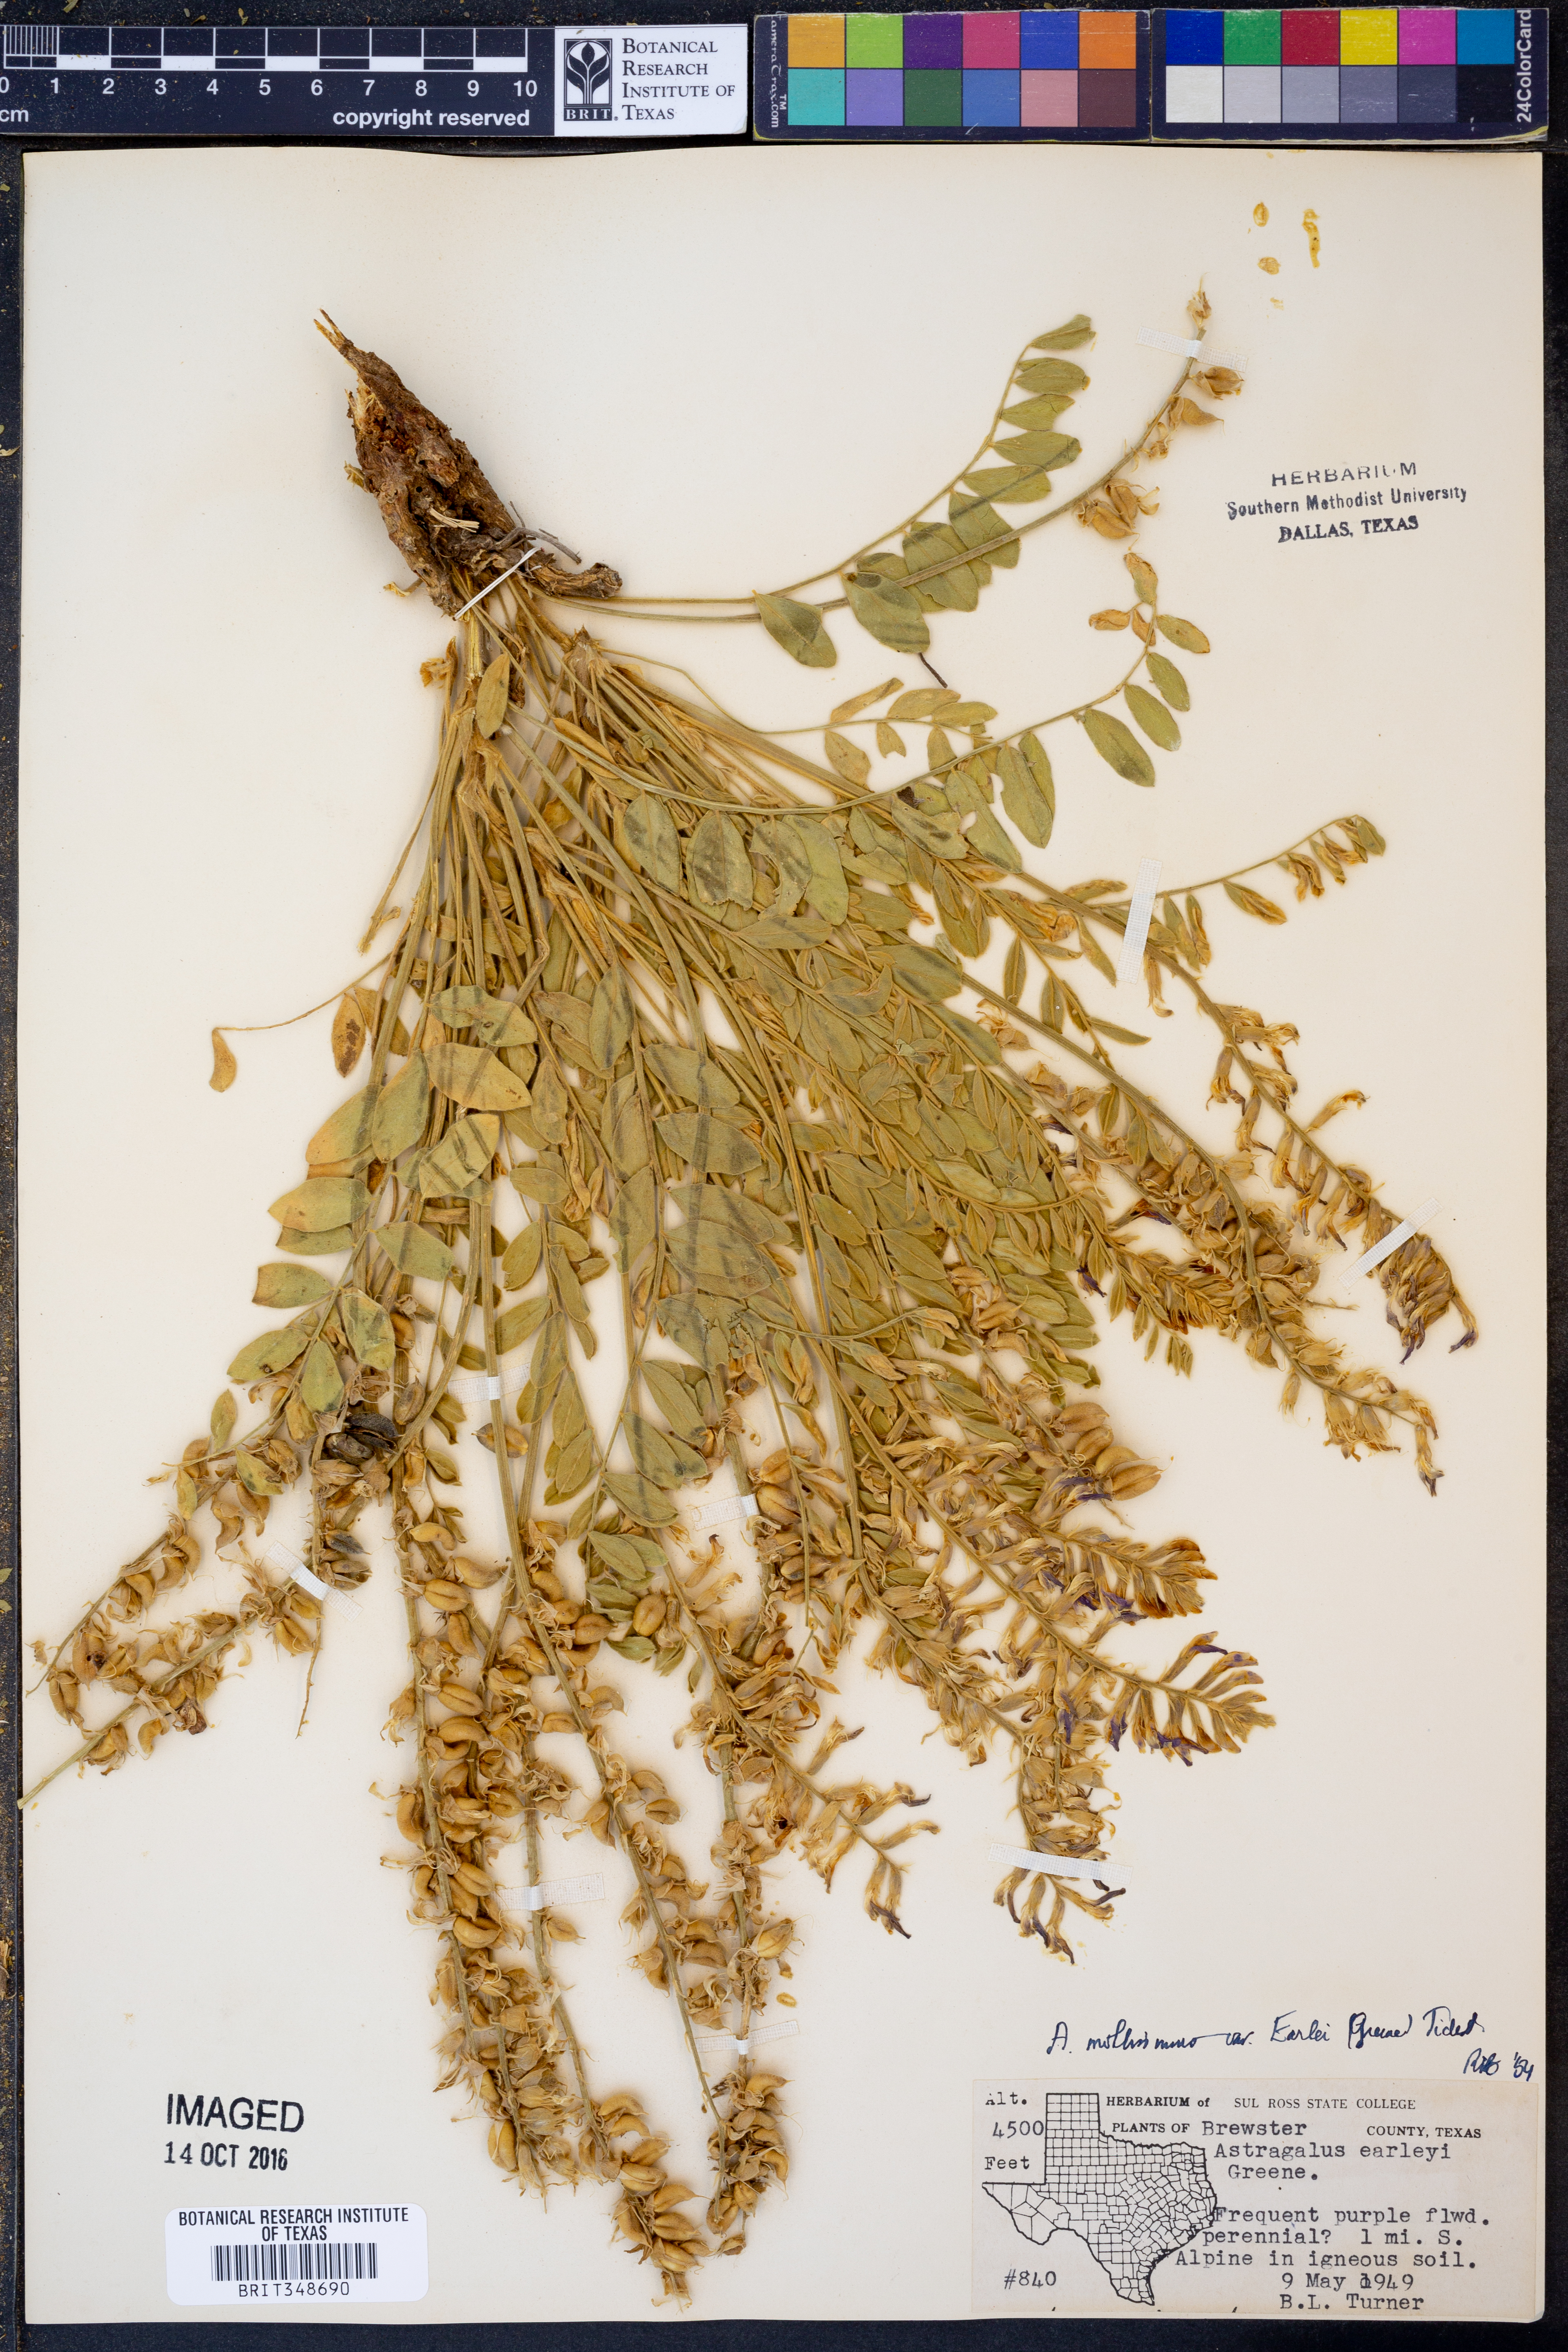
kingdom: Plantae
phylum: Tracheophyta
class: Magnoliopsida
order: Fabales
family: Fabaceae
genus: Astragalus
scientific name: Astragalus mollissimus
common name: Woolly locoweed
